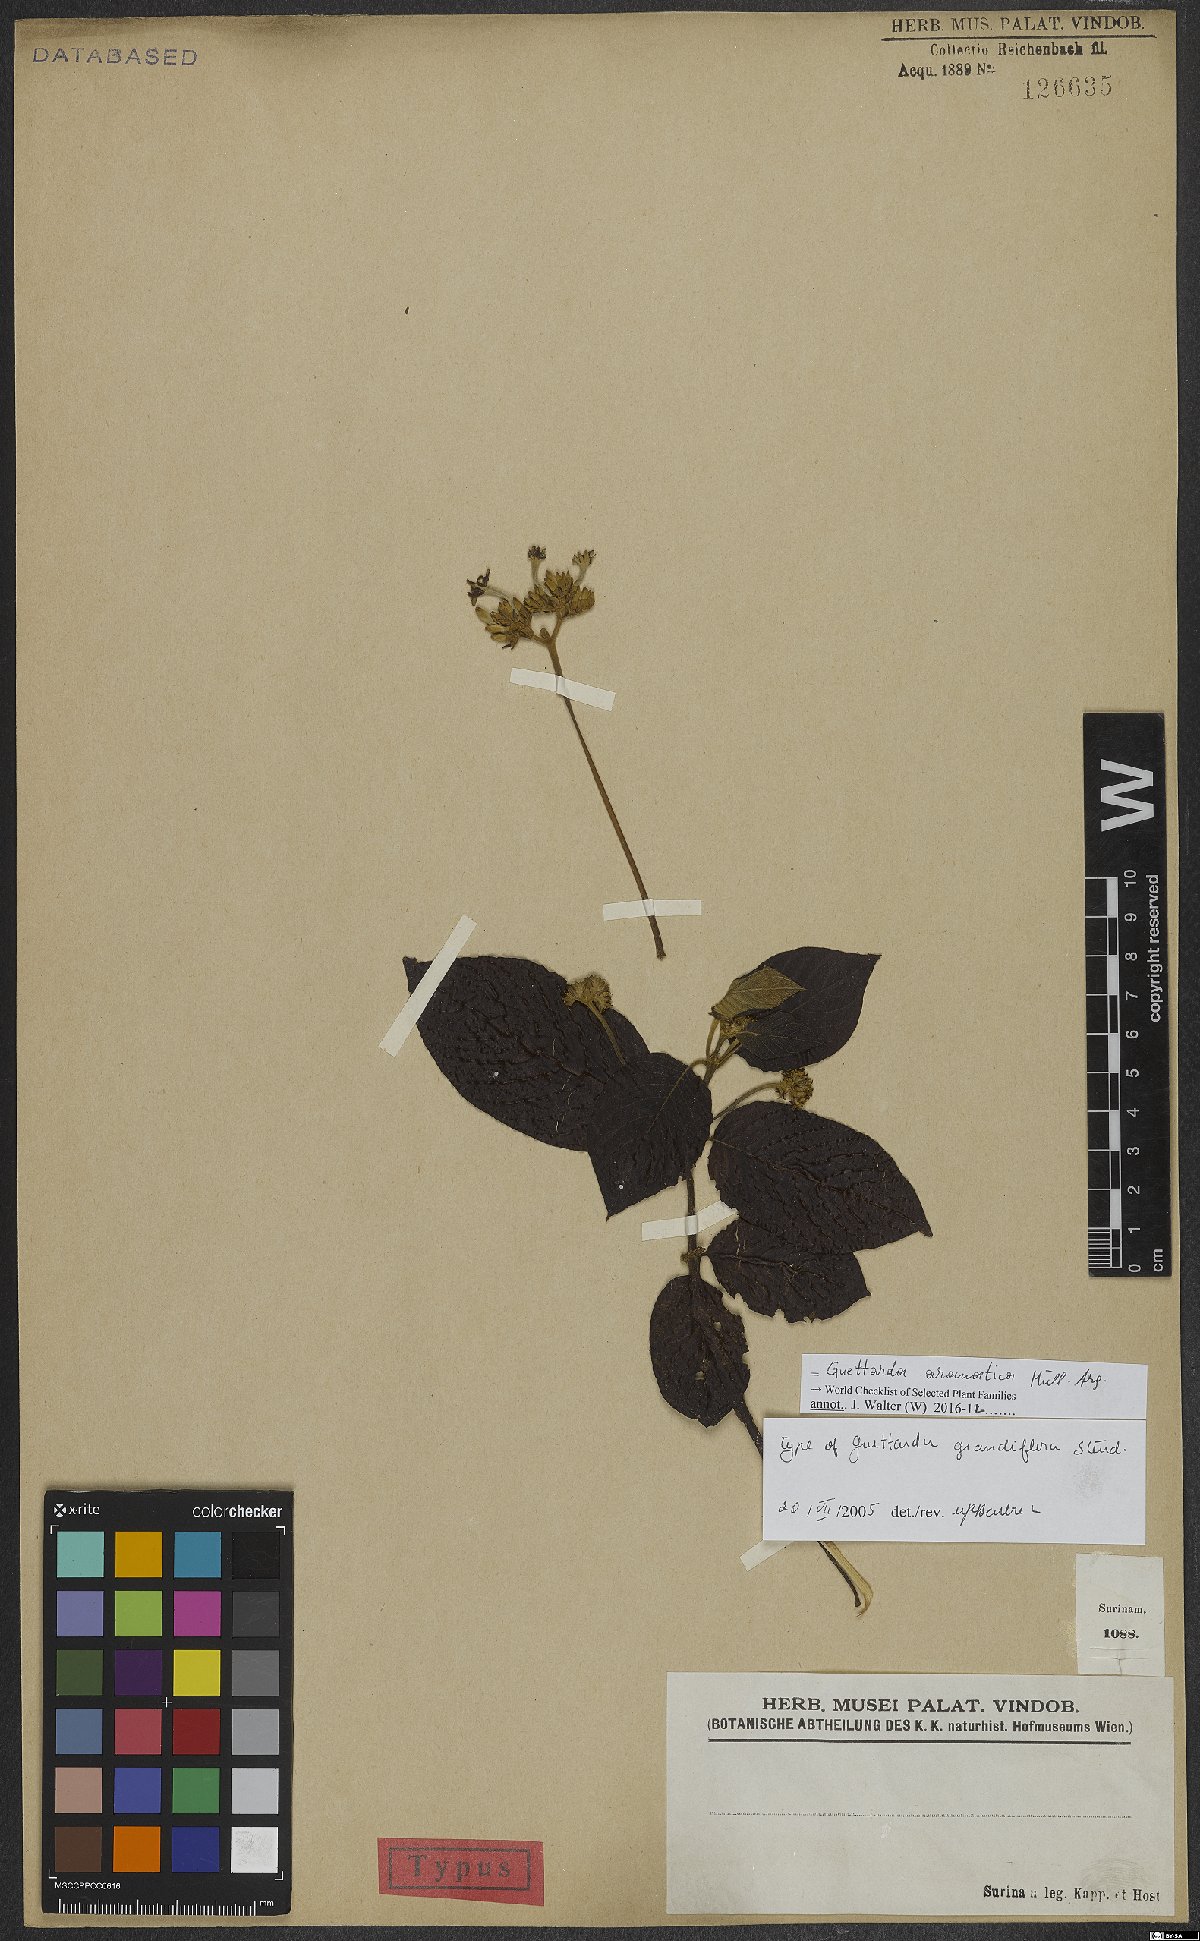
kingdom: Plantae
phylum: Tracheophyta
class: Magnoliopsida
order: Gentianales
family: Rubiaceae
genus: Guettarda
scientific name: Guettarda aromatica
